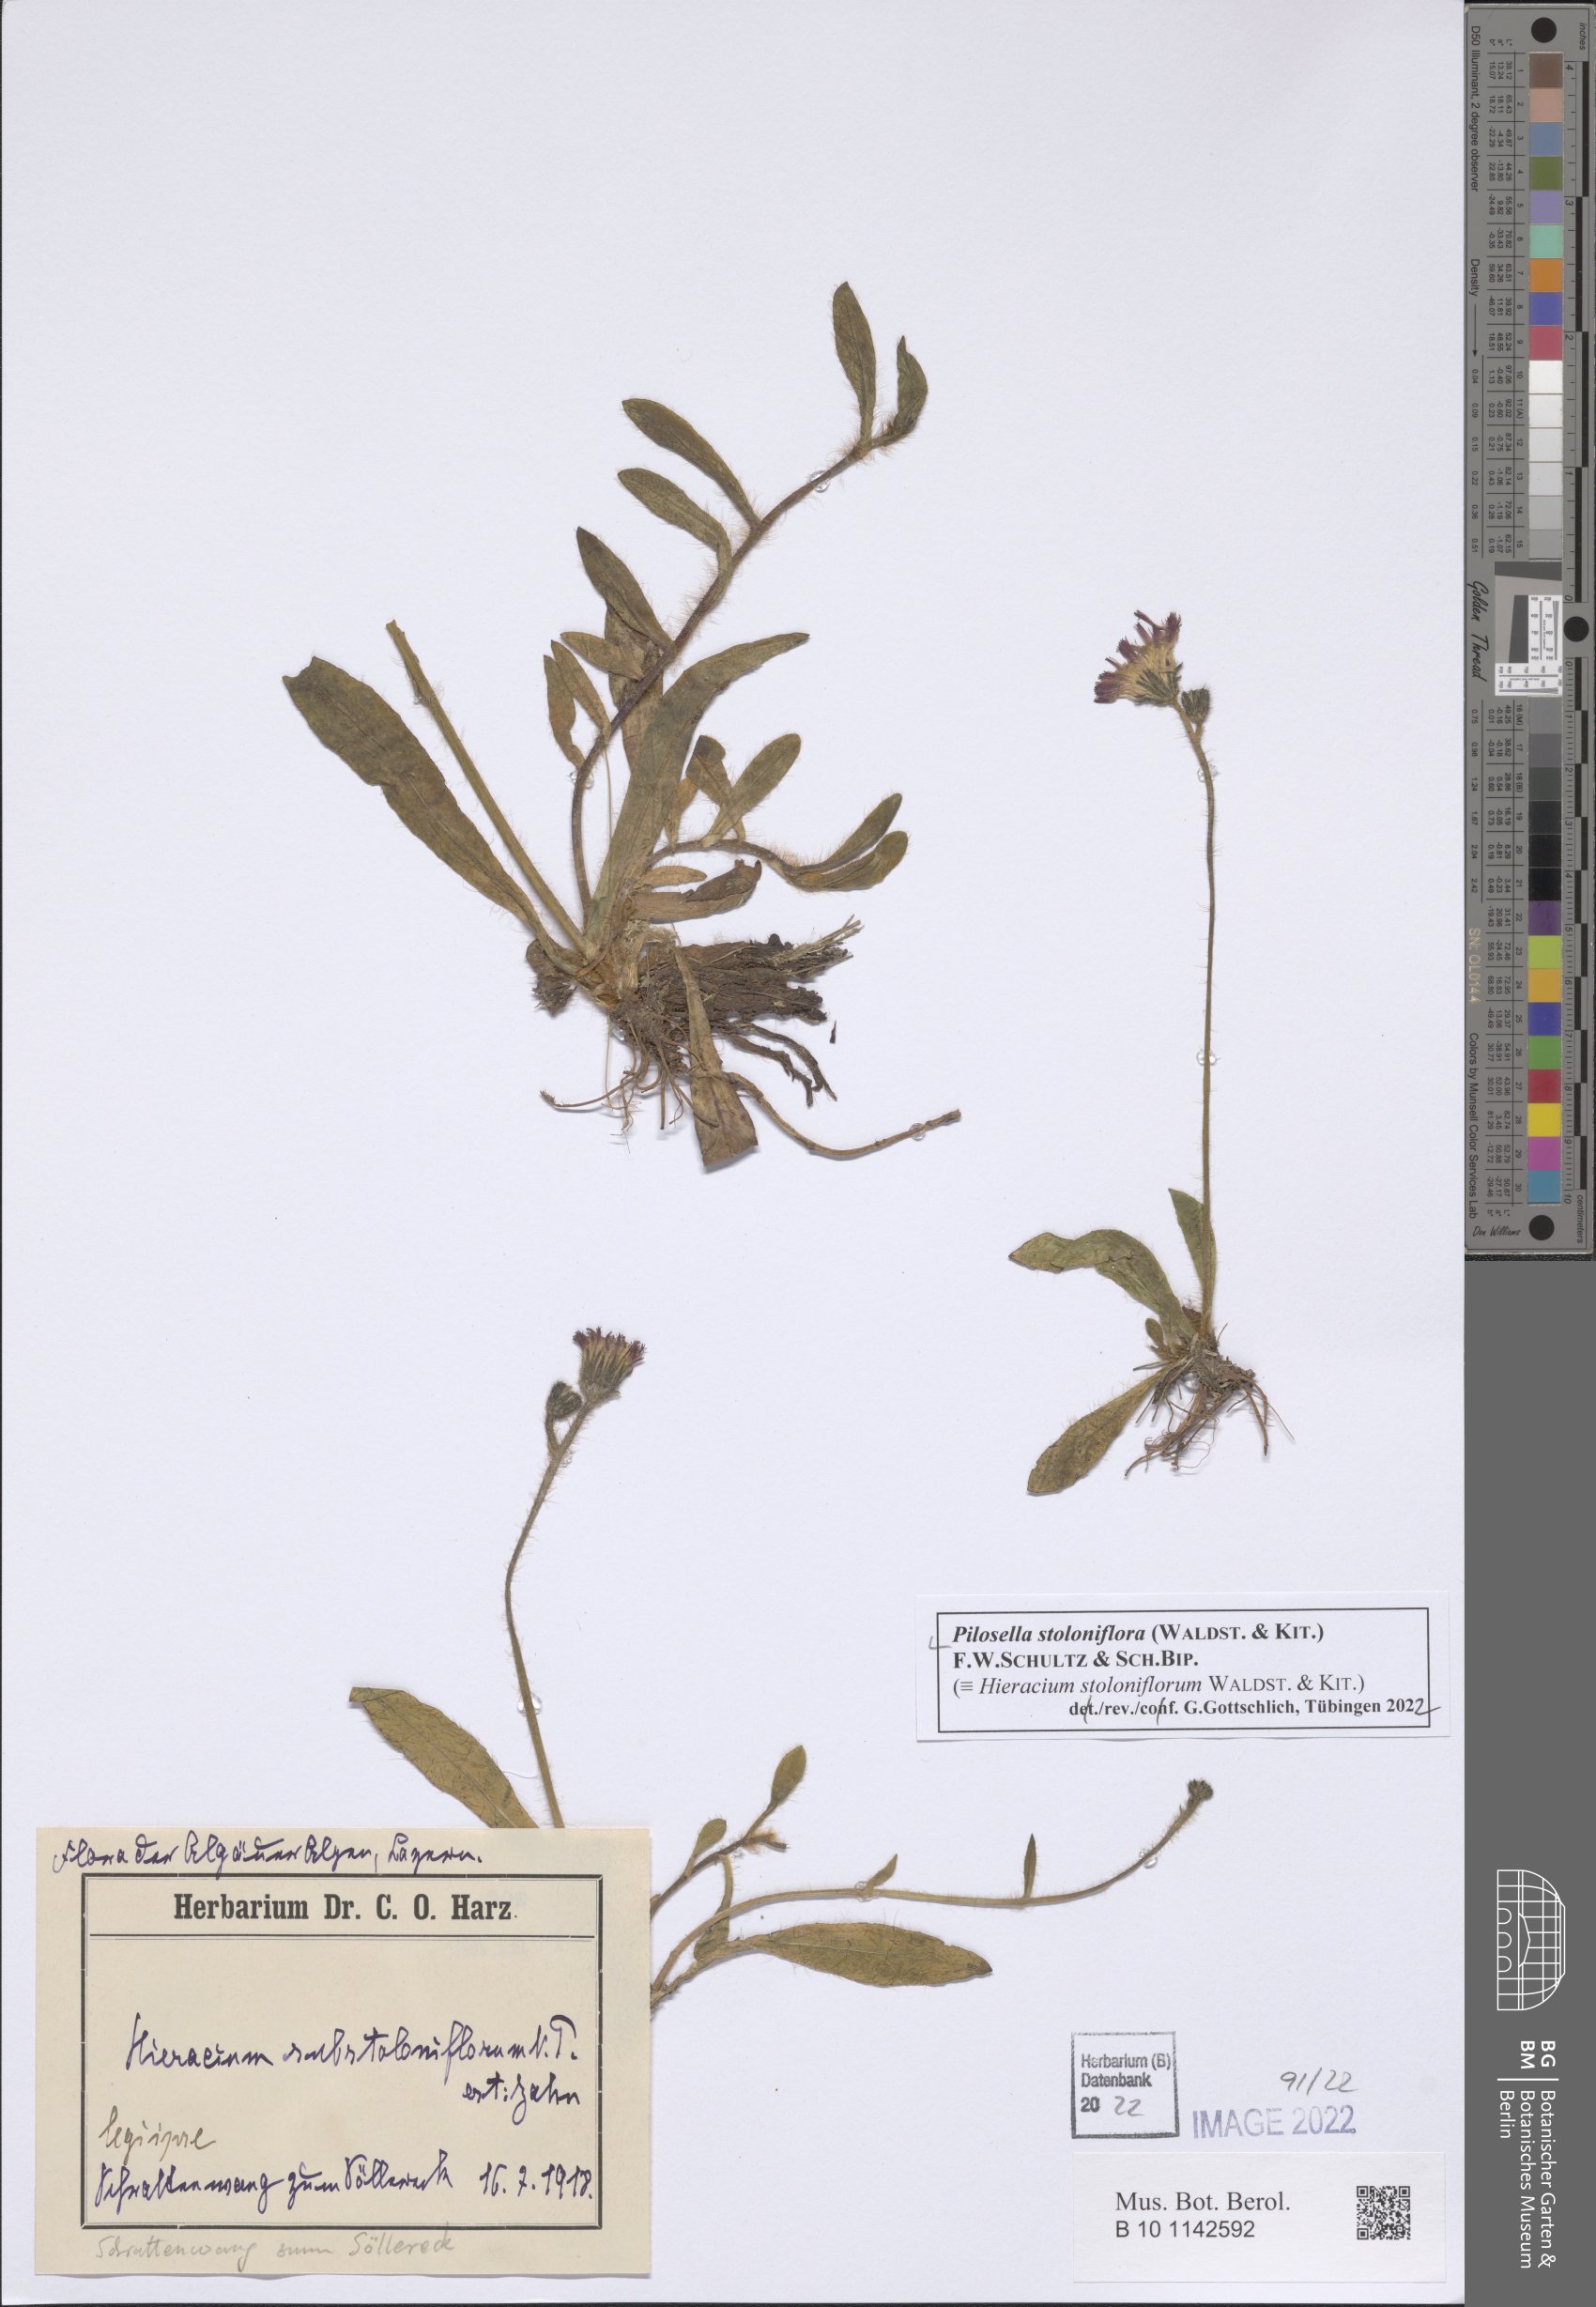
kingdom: Plantae
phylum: Tracheophyta
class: Magnoliopsida
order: Asterales
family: Asteraceae
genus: Pilosella
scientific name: Pilosella stoloniflora
